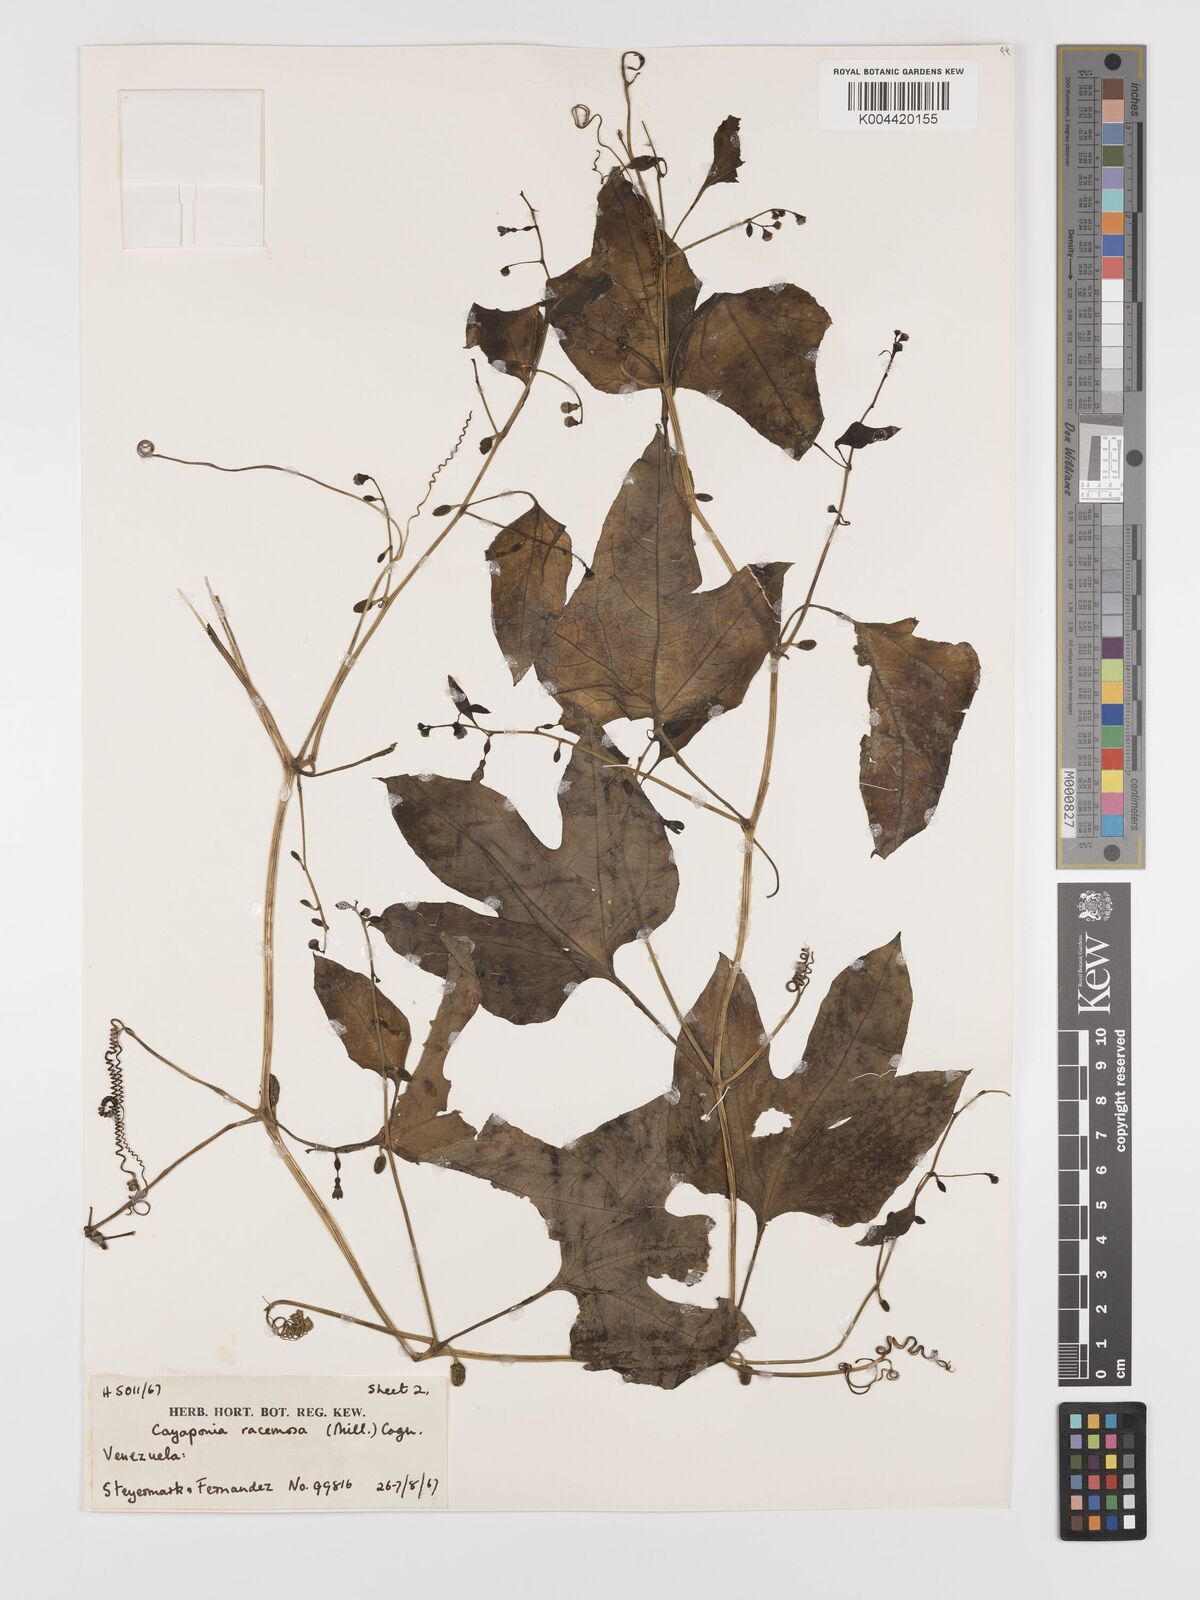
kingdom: Plantae
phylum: Tracheophyta
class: Magnoliopsida
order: Cucurbitales
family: Cucurbitaceae
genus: Cayaponia
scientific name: Cayaponia racemosa
